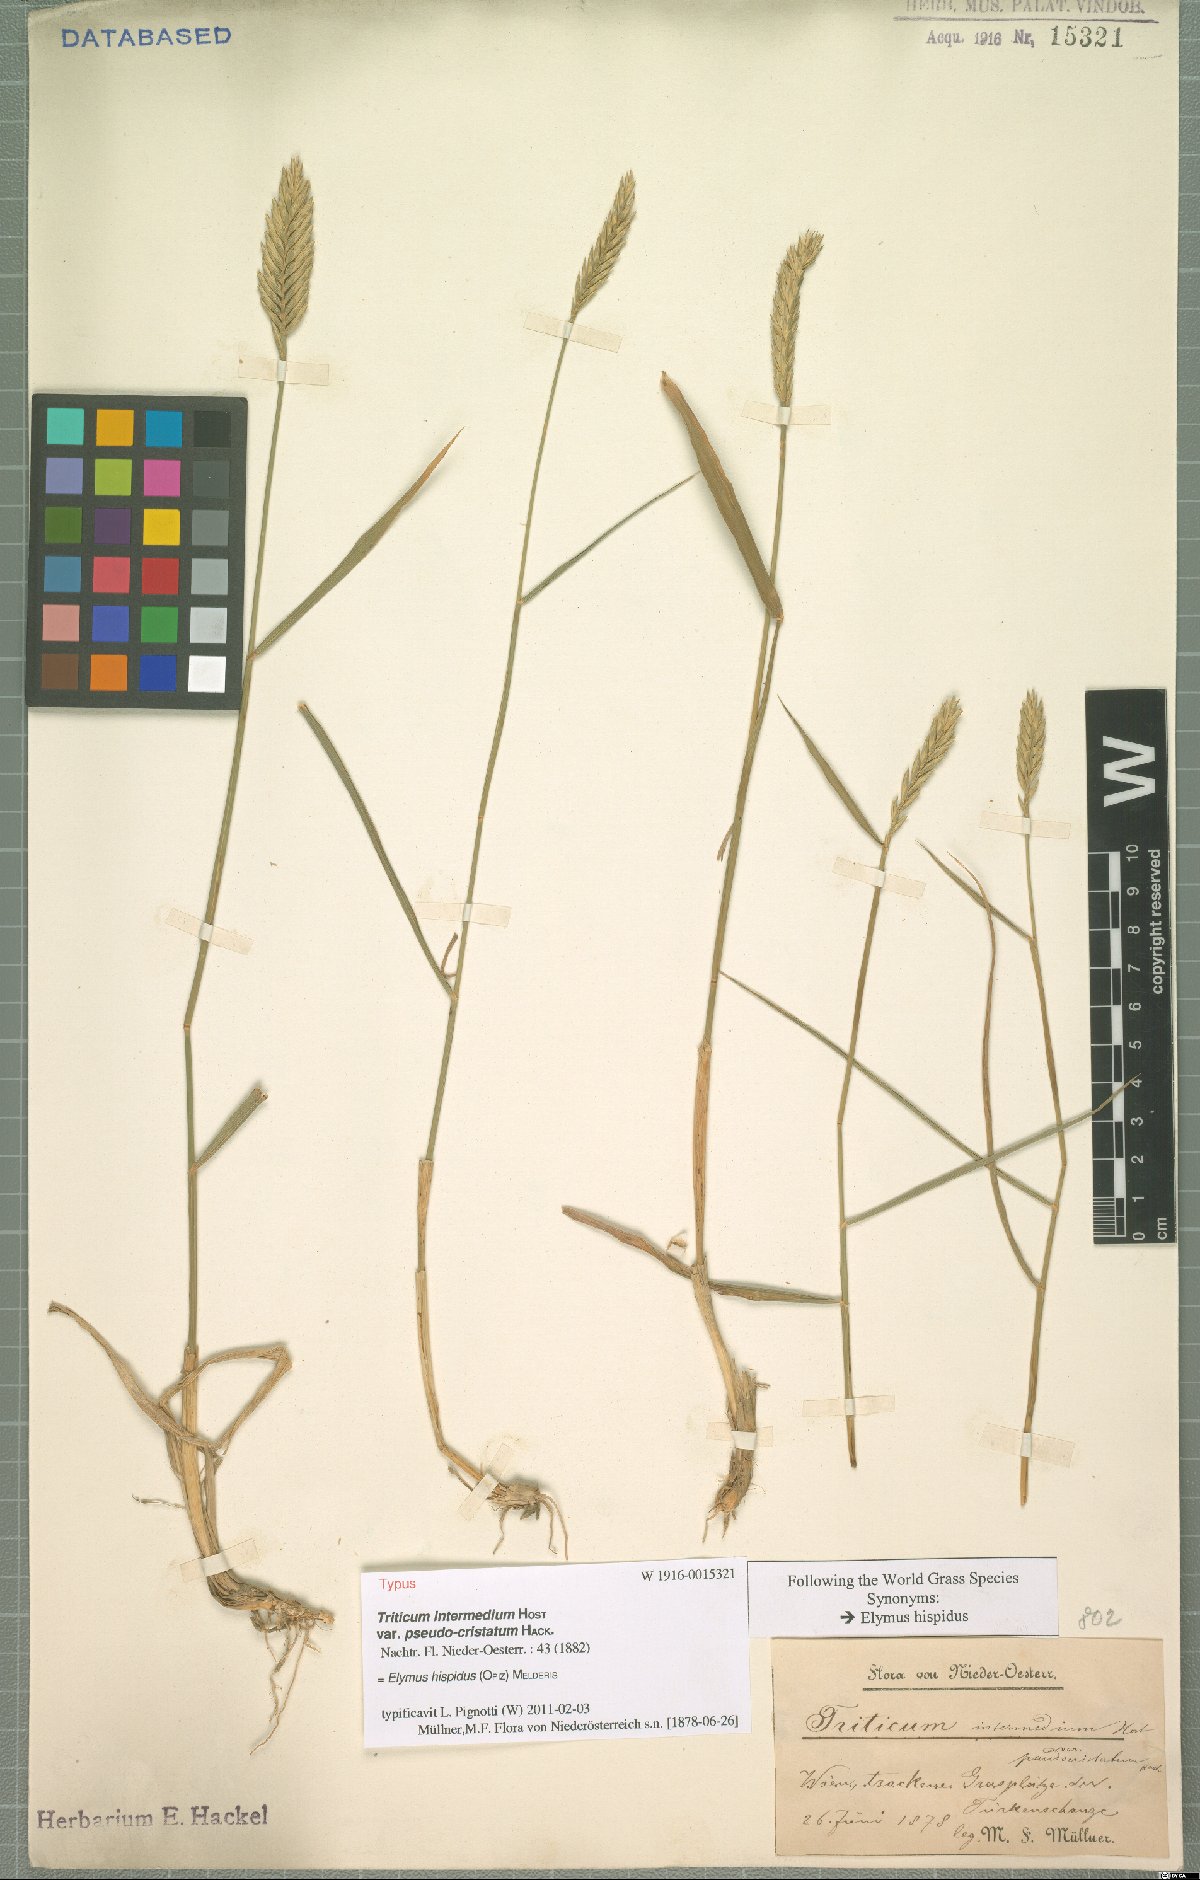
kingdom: Plantae
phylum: Tracheophyta
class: Liliopsida
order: Poales
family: Poaceae
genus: Thinopyrum
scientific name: Thinopyrum intermedium
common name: Intermediate wheatgrass
